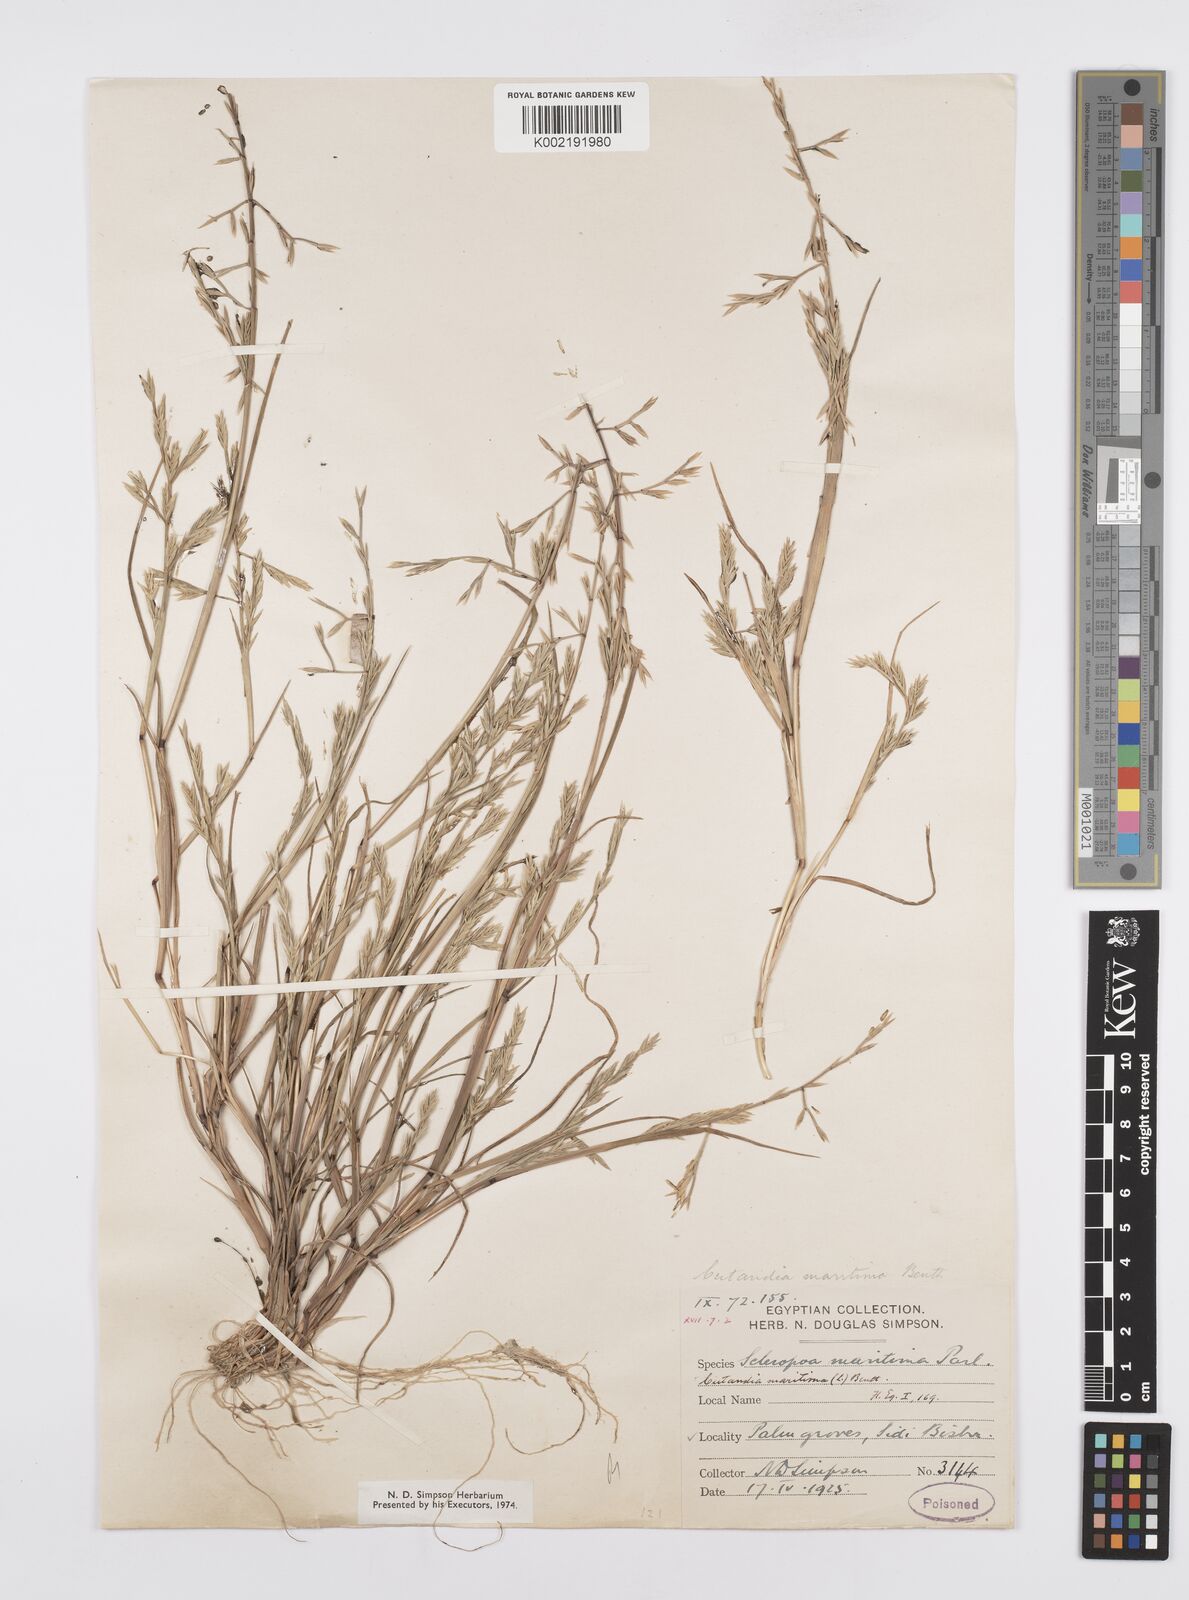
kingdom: Plantae
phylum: Tracheophyta
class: Liliopsida
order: Poales
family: Poaceae
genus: Cutandia
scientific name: Cutandia maritima
